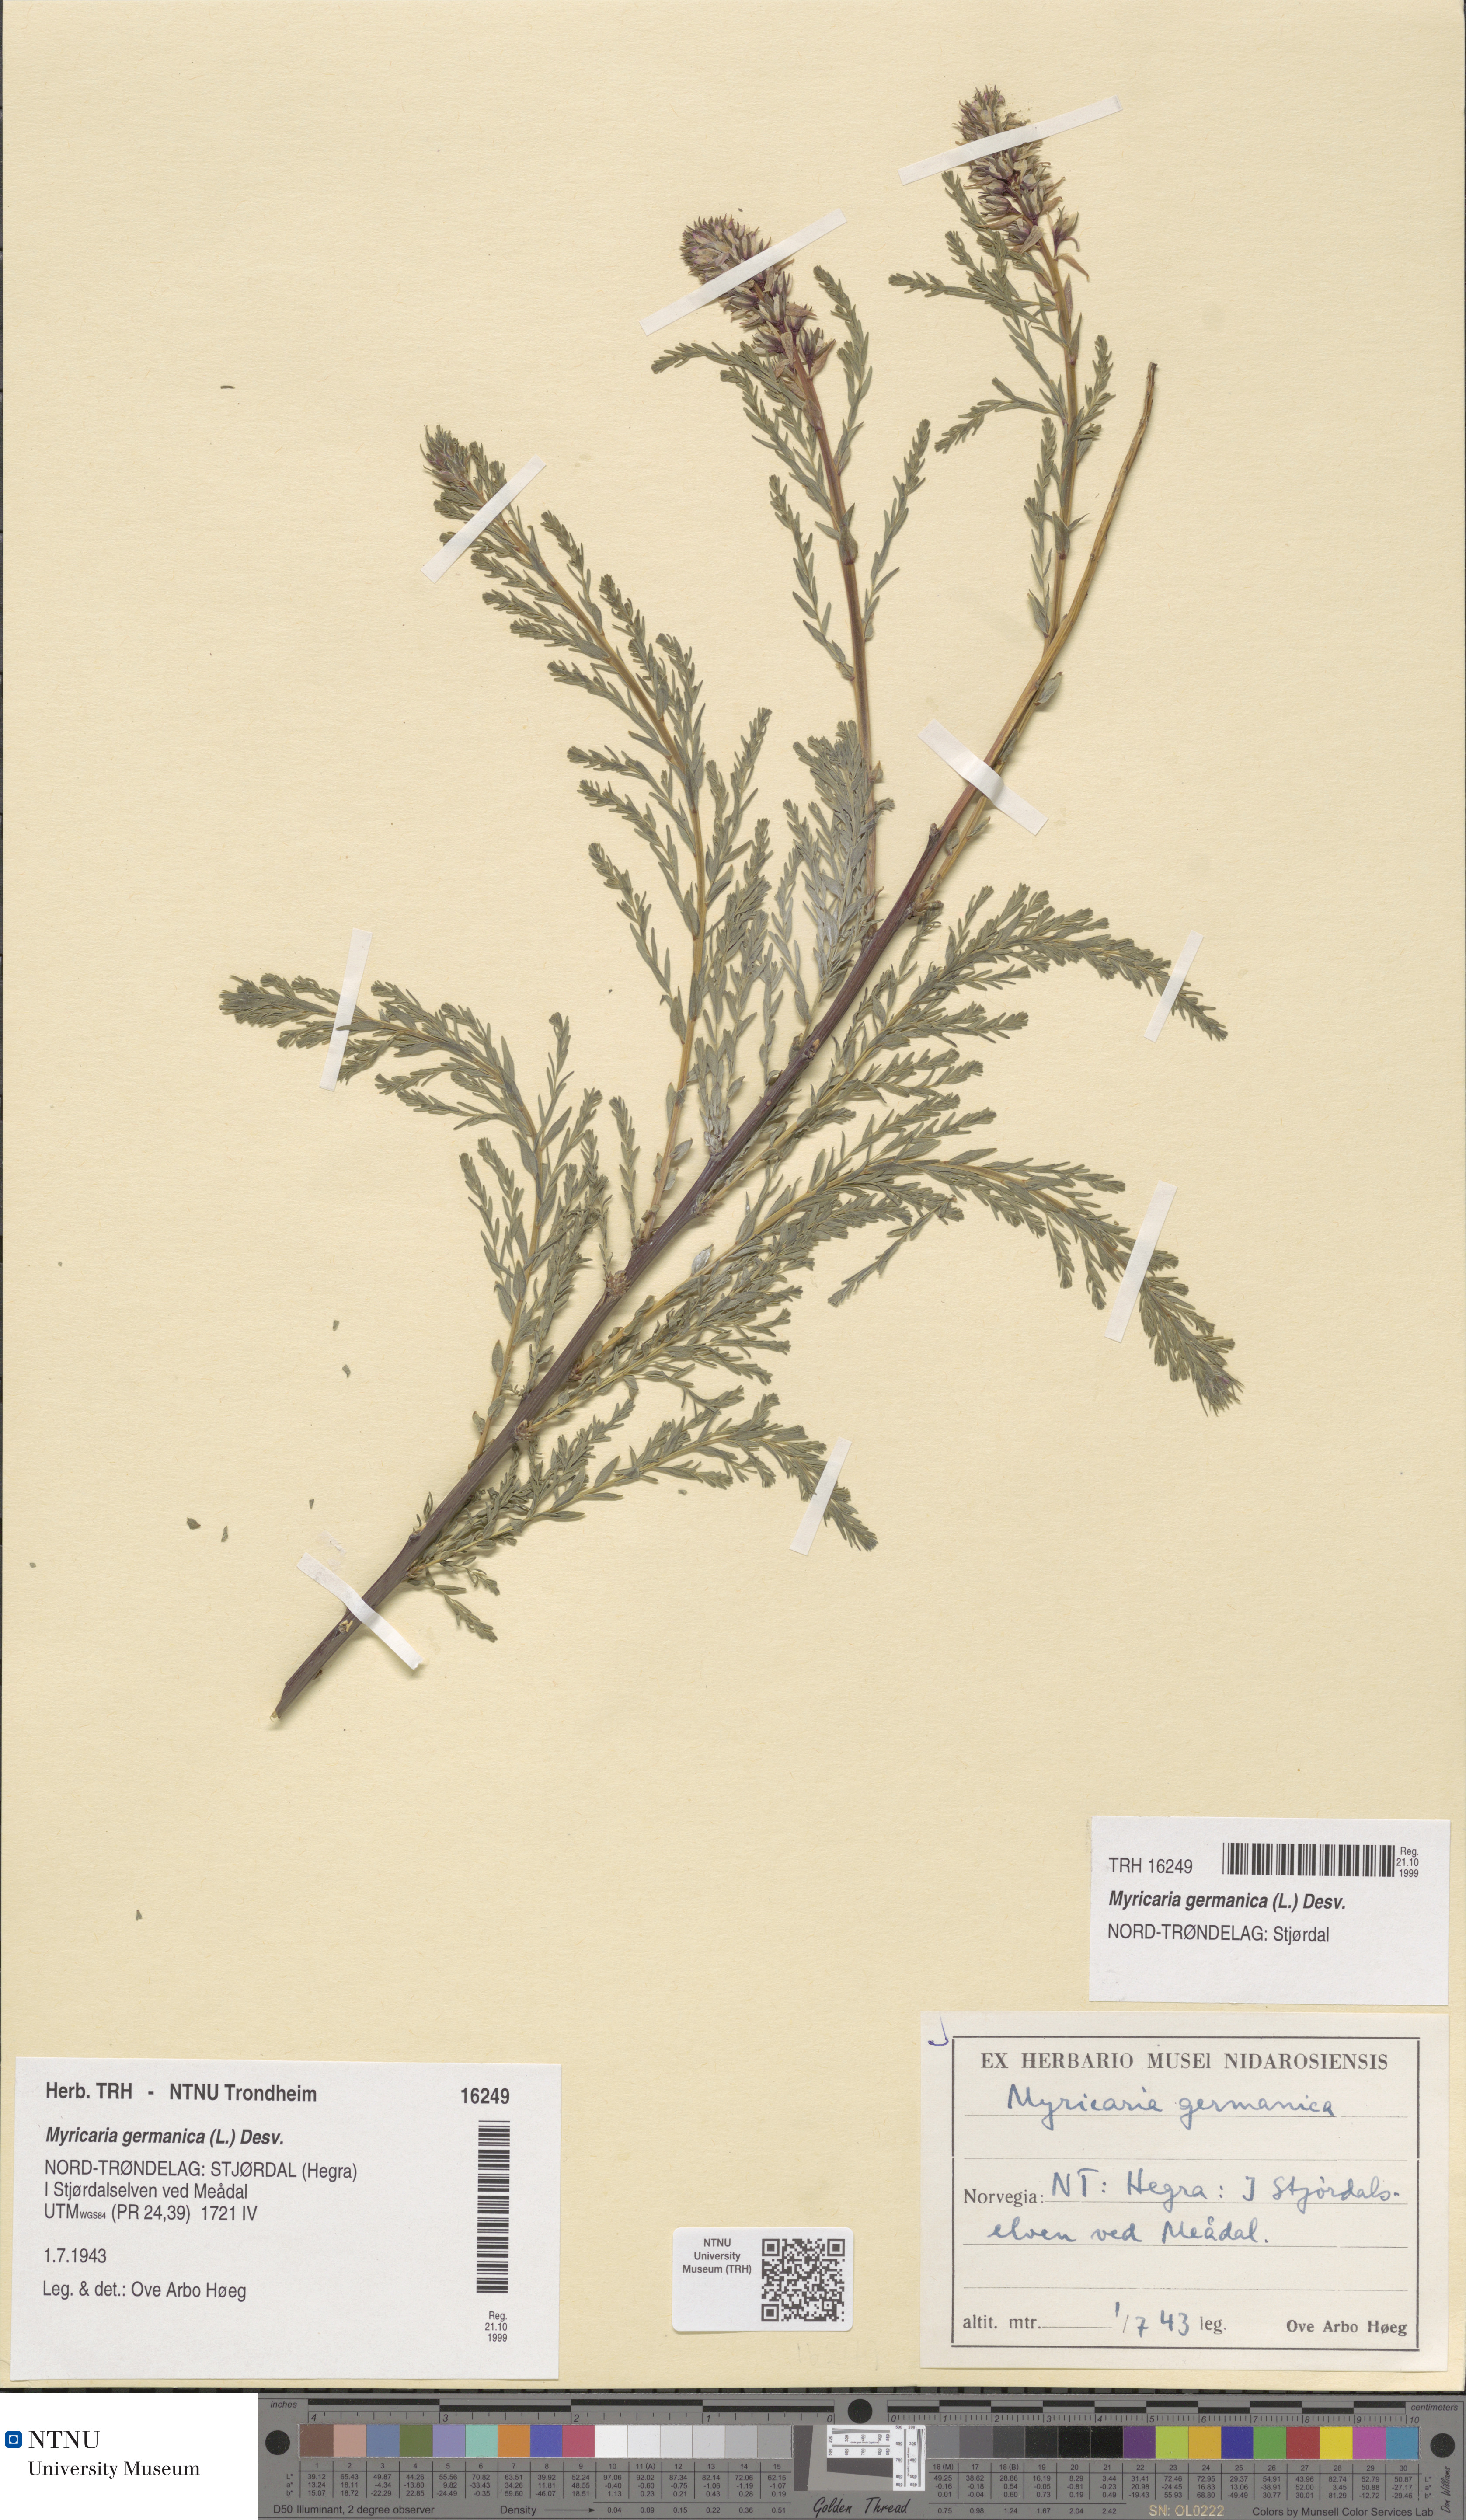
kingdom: Plantae
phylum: Tracheophyta
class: Magnoliopsida
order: Caryophyllales
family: Tamaricaceae
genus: Myricaria
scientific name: Myricaria germanica
